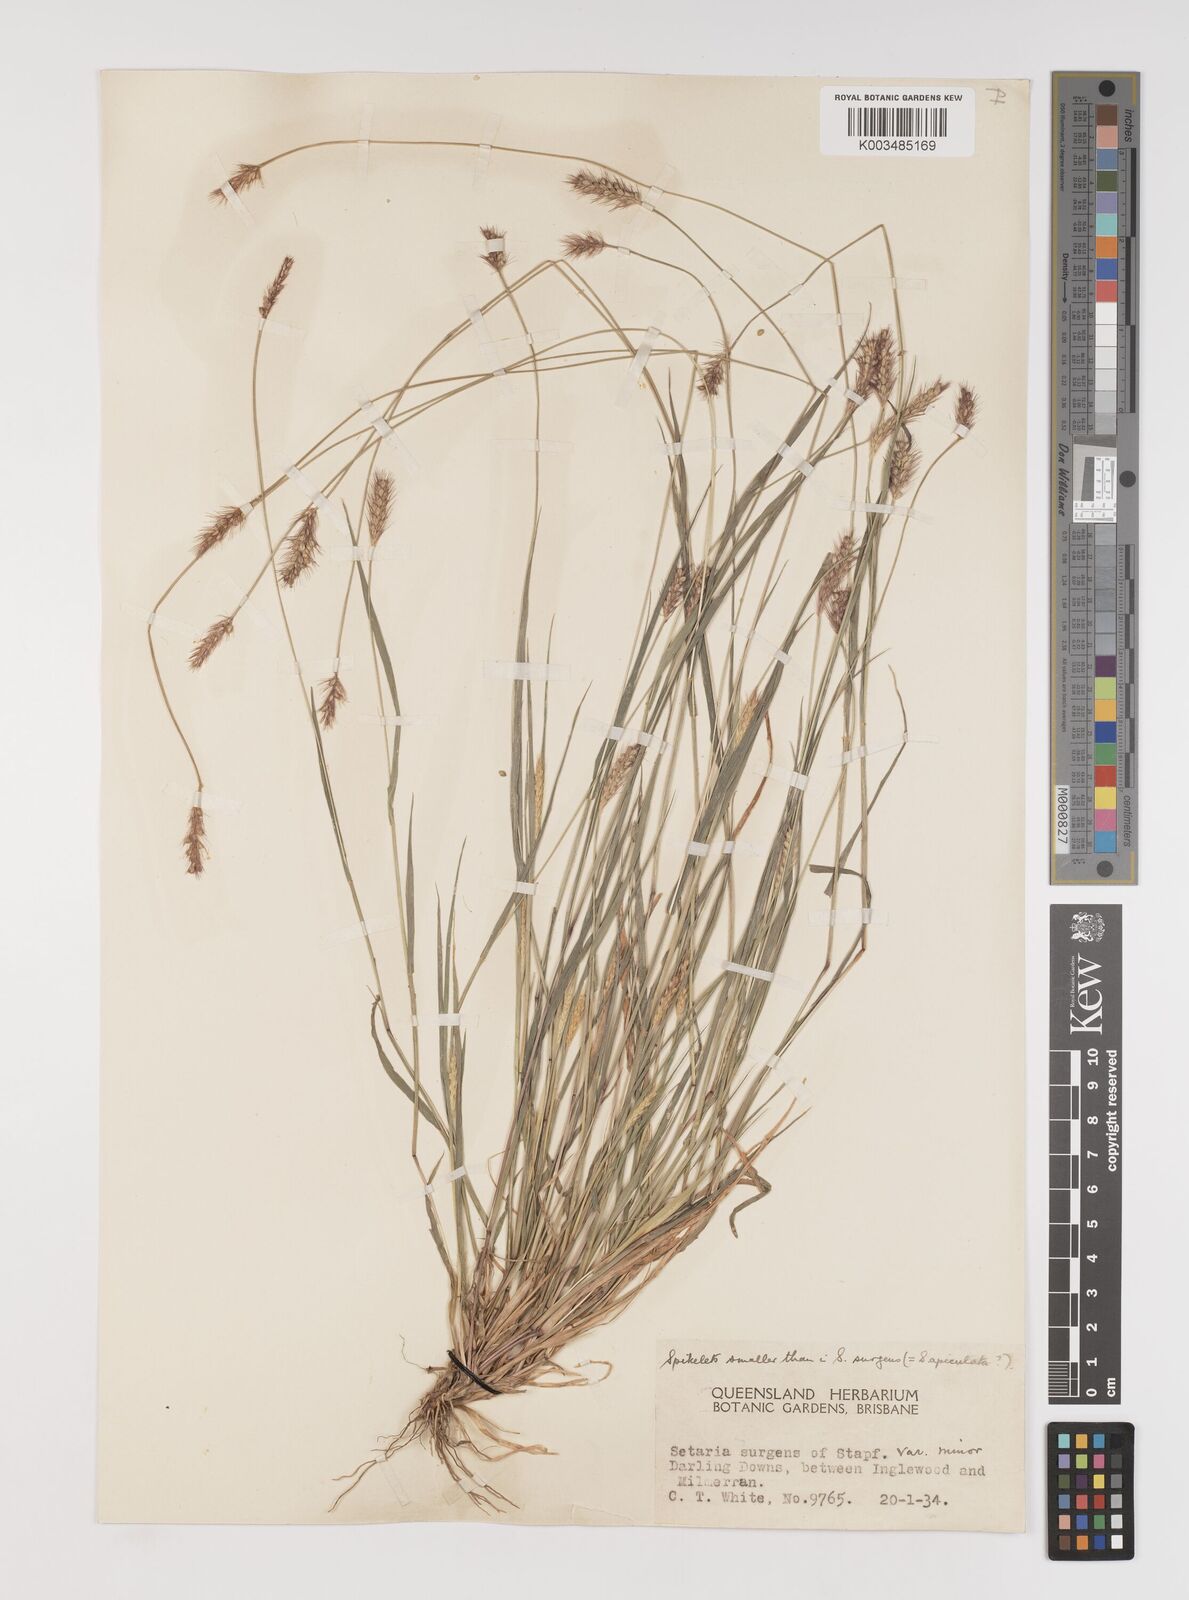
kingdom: Plantae
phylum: Tracheophyta
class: Liliopsida
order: Poales
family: Poaceae
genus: Setaria
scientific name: Setaria brownii
